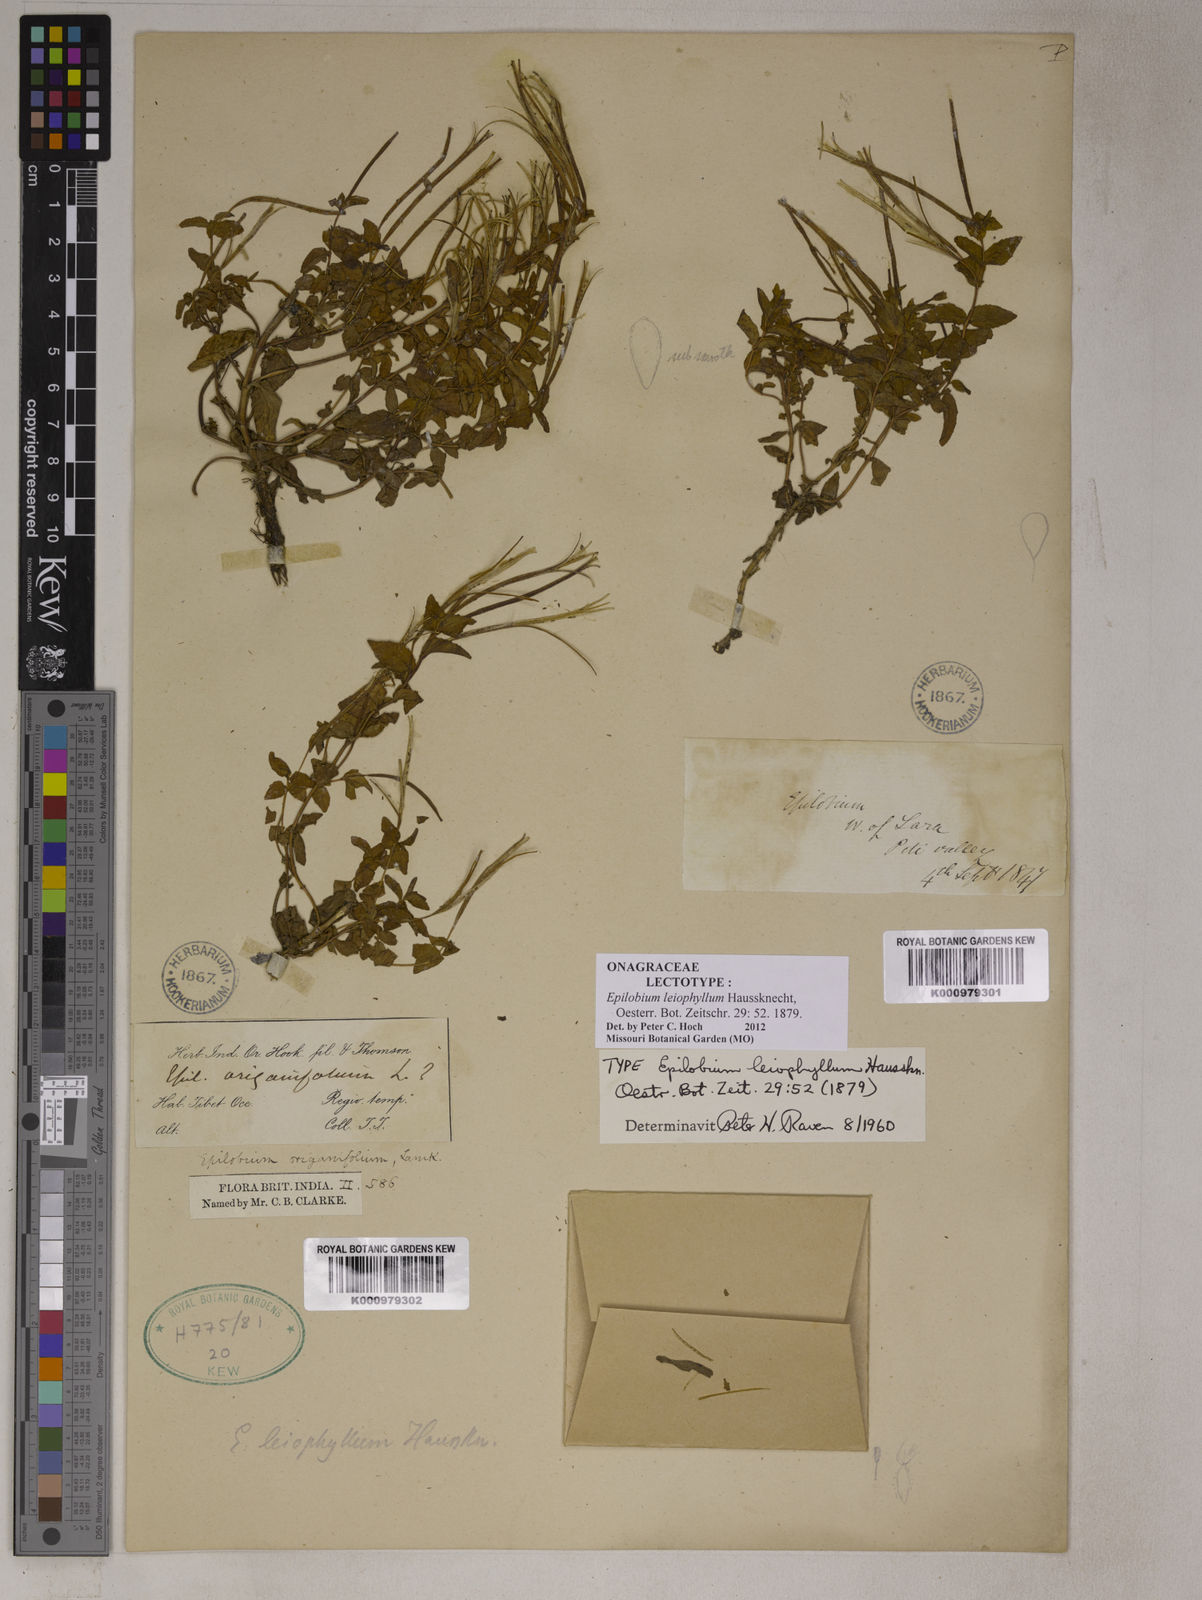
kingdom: Plantae
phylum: Tracheophyta
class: Magnoliopsida
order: Myrtales
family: Onagraceae
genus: Epilobium
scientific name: Epilobium leiophyllum
